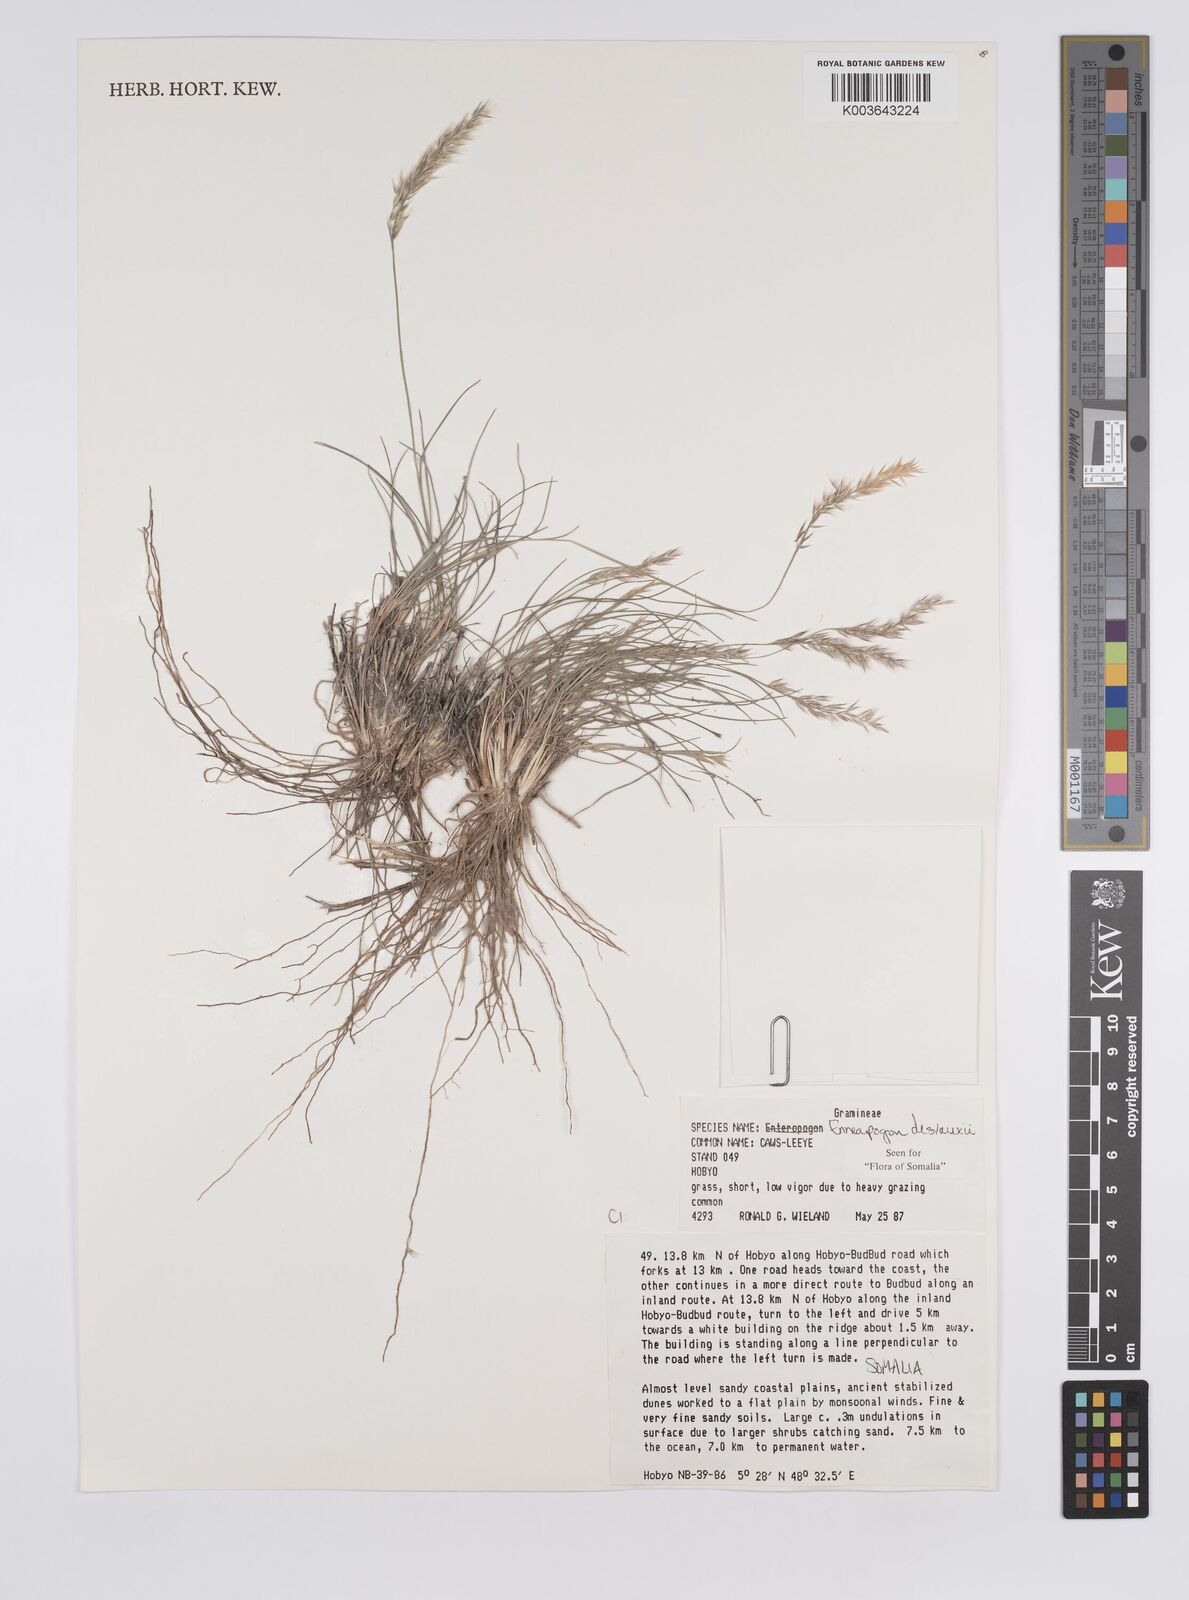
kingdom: Plantae
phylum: Tracheophyta
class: Liliopsida
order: Poales
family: Poaceae
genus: Enneapogon
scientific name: Enneapogon desvauxii
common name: Feather pappus grass
